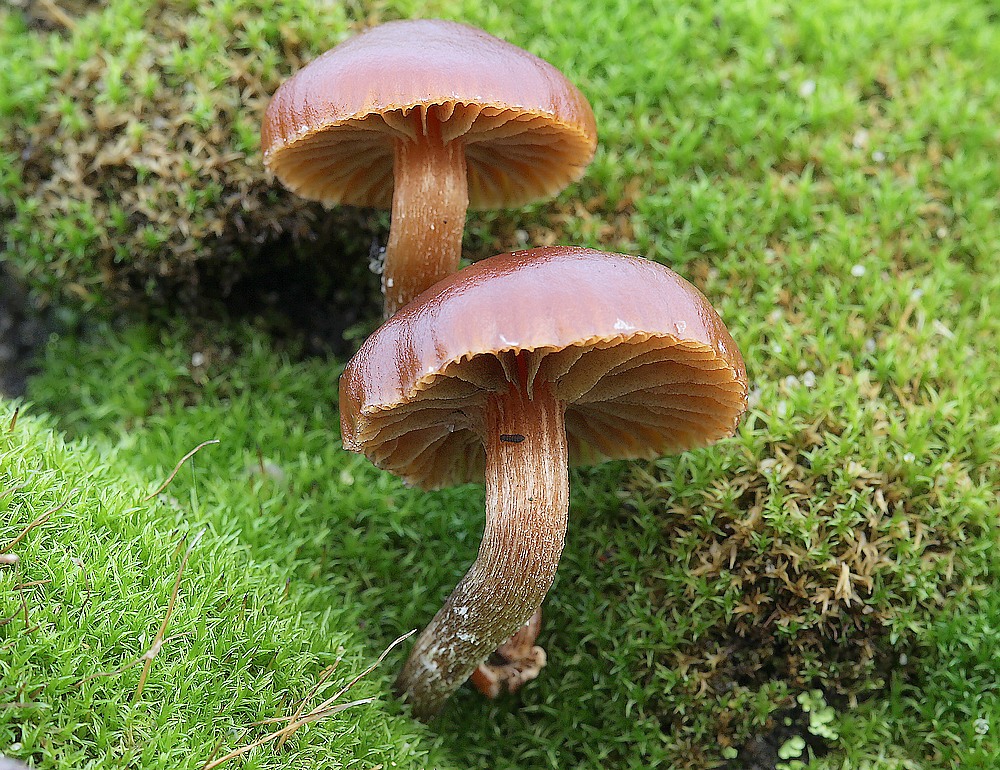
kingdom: Fungi
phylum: Basidiomycota
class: Agaricomycetes
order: Agaricales
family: Strophariaceae
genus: Deconica
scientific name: Deconica montana
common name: rødbrun stråhat
